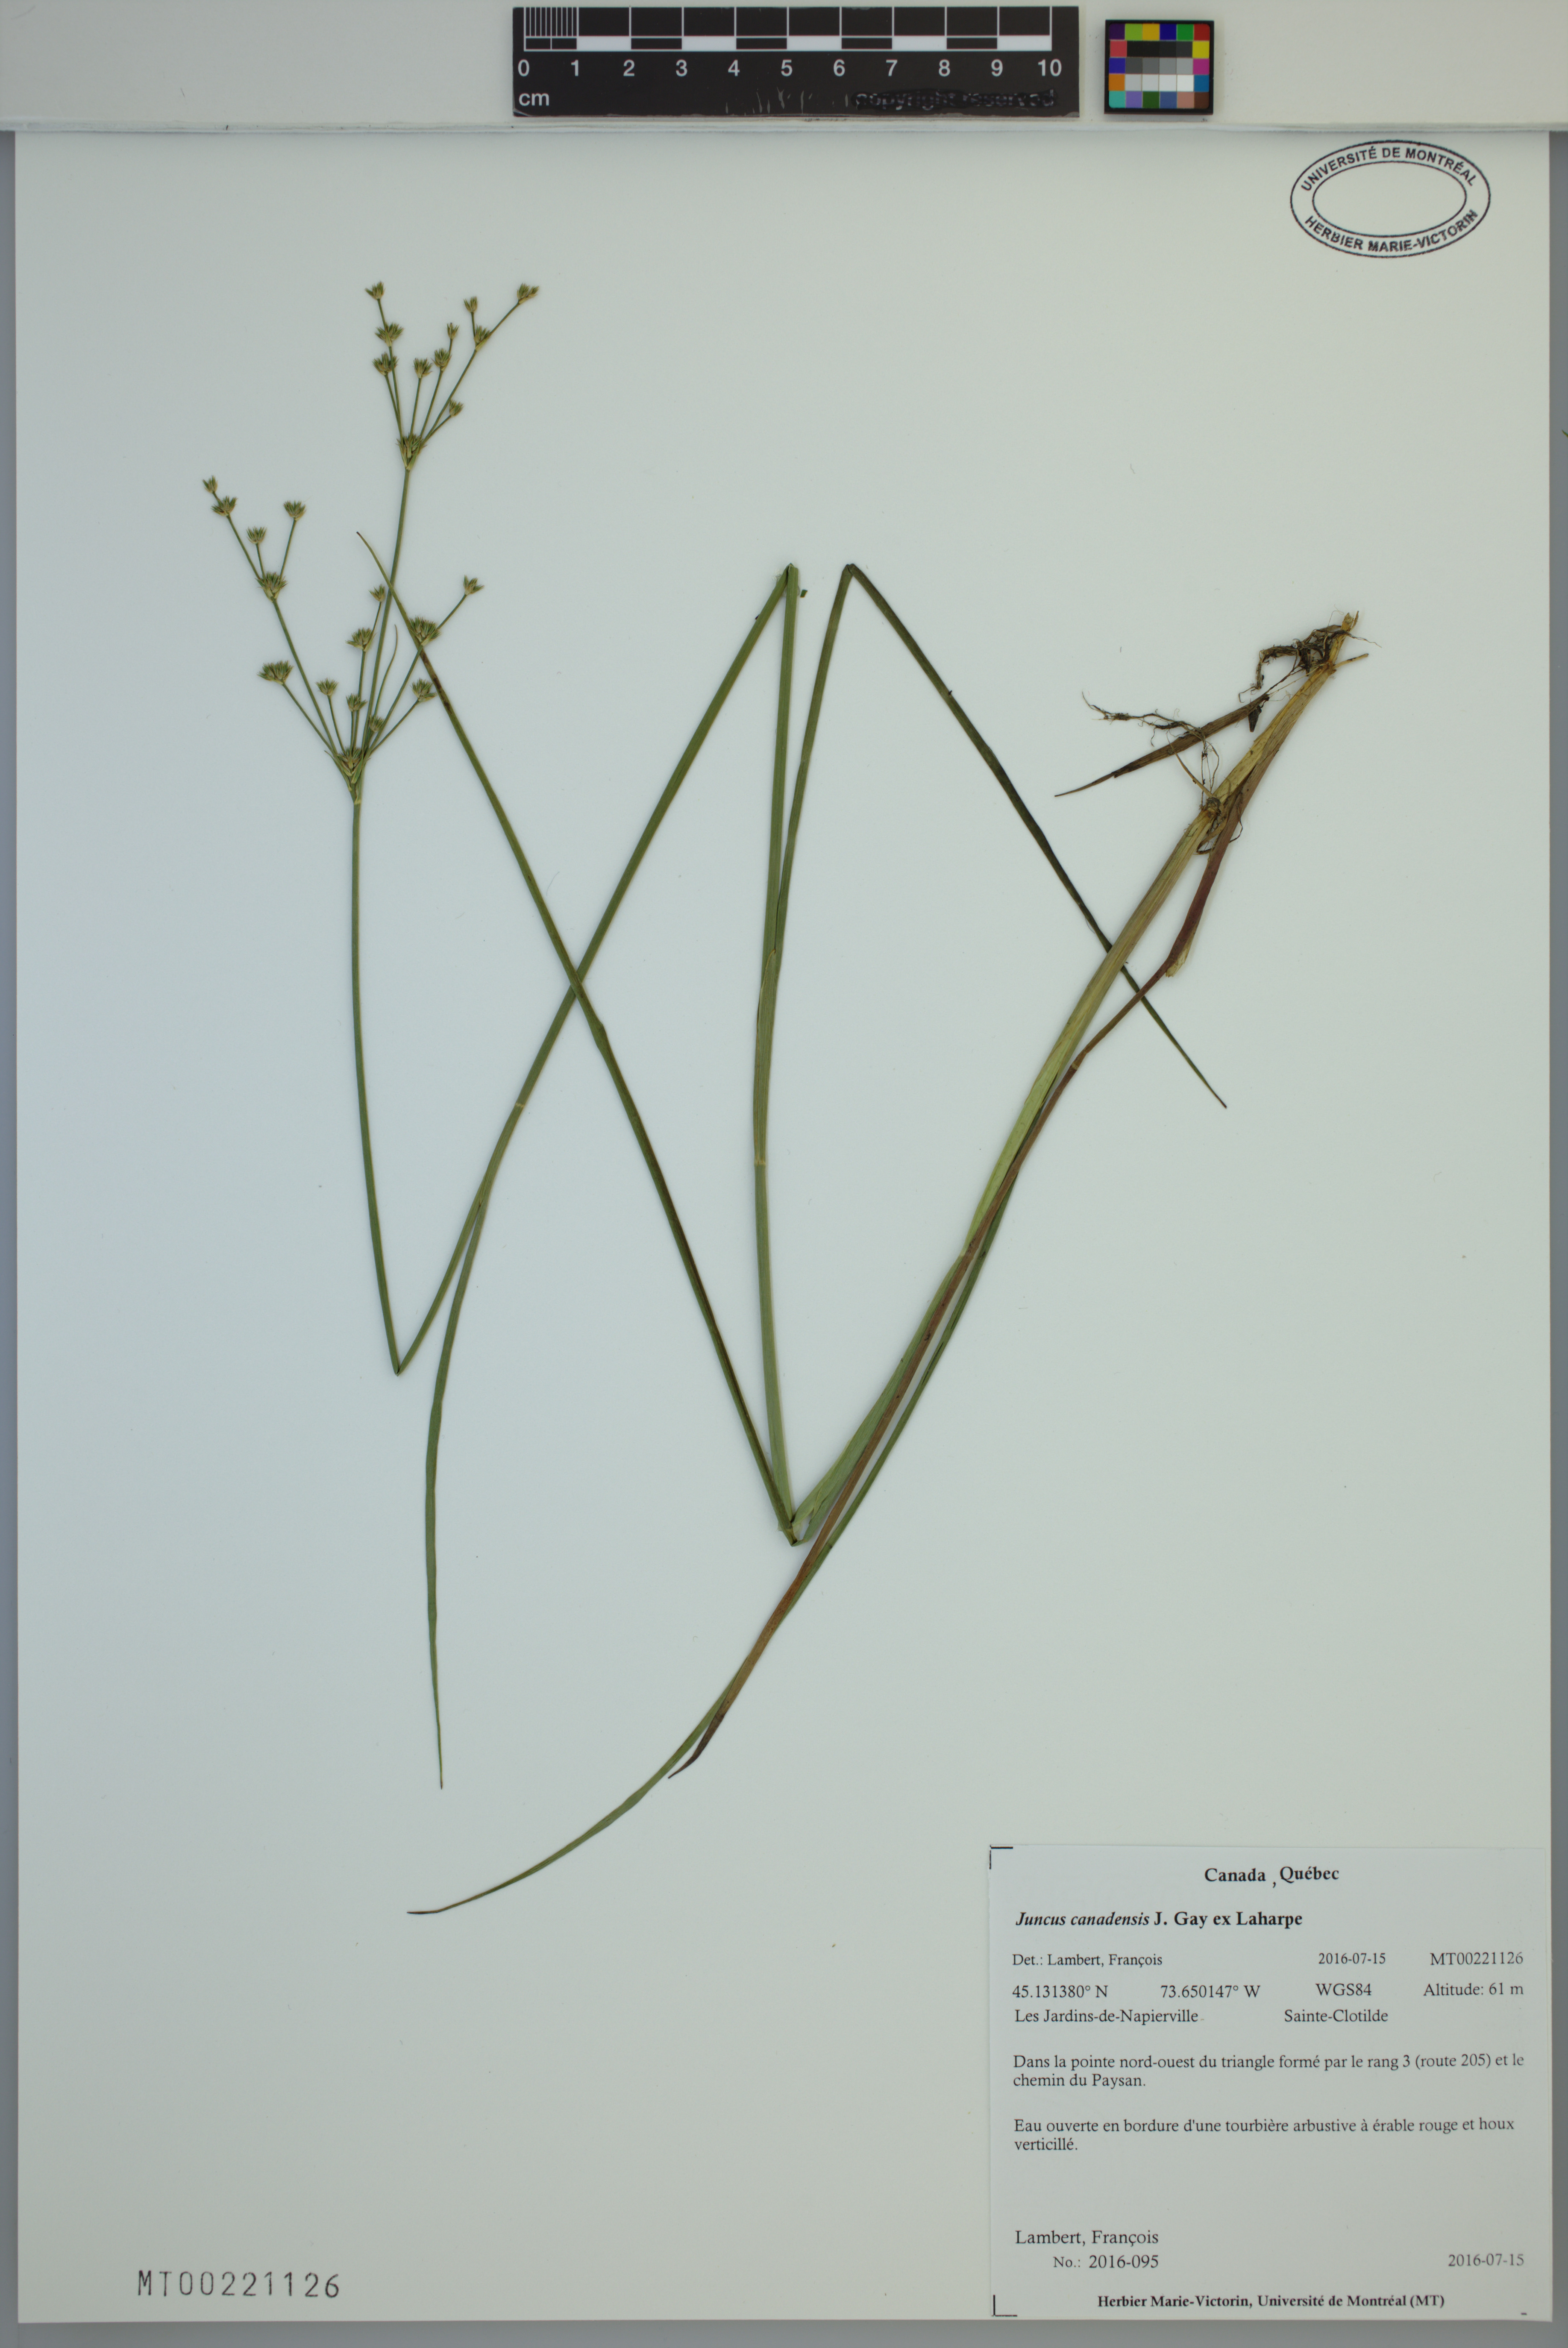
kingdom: Plantae
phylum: Tracheophyta
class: Liliopsida
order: Poales
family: Juncaceae
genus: Juncus
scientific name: Juncus canadensis
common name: Canada rush
